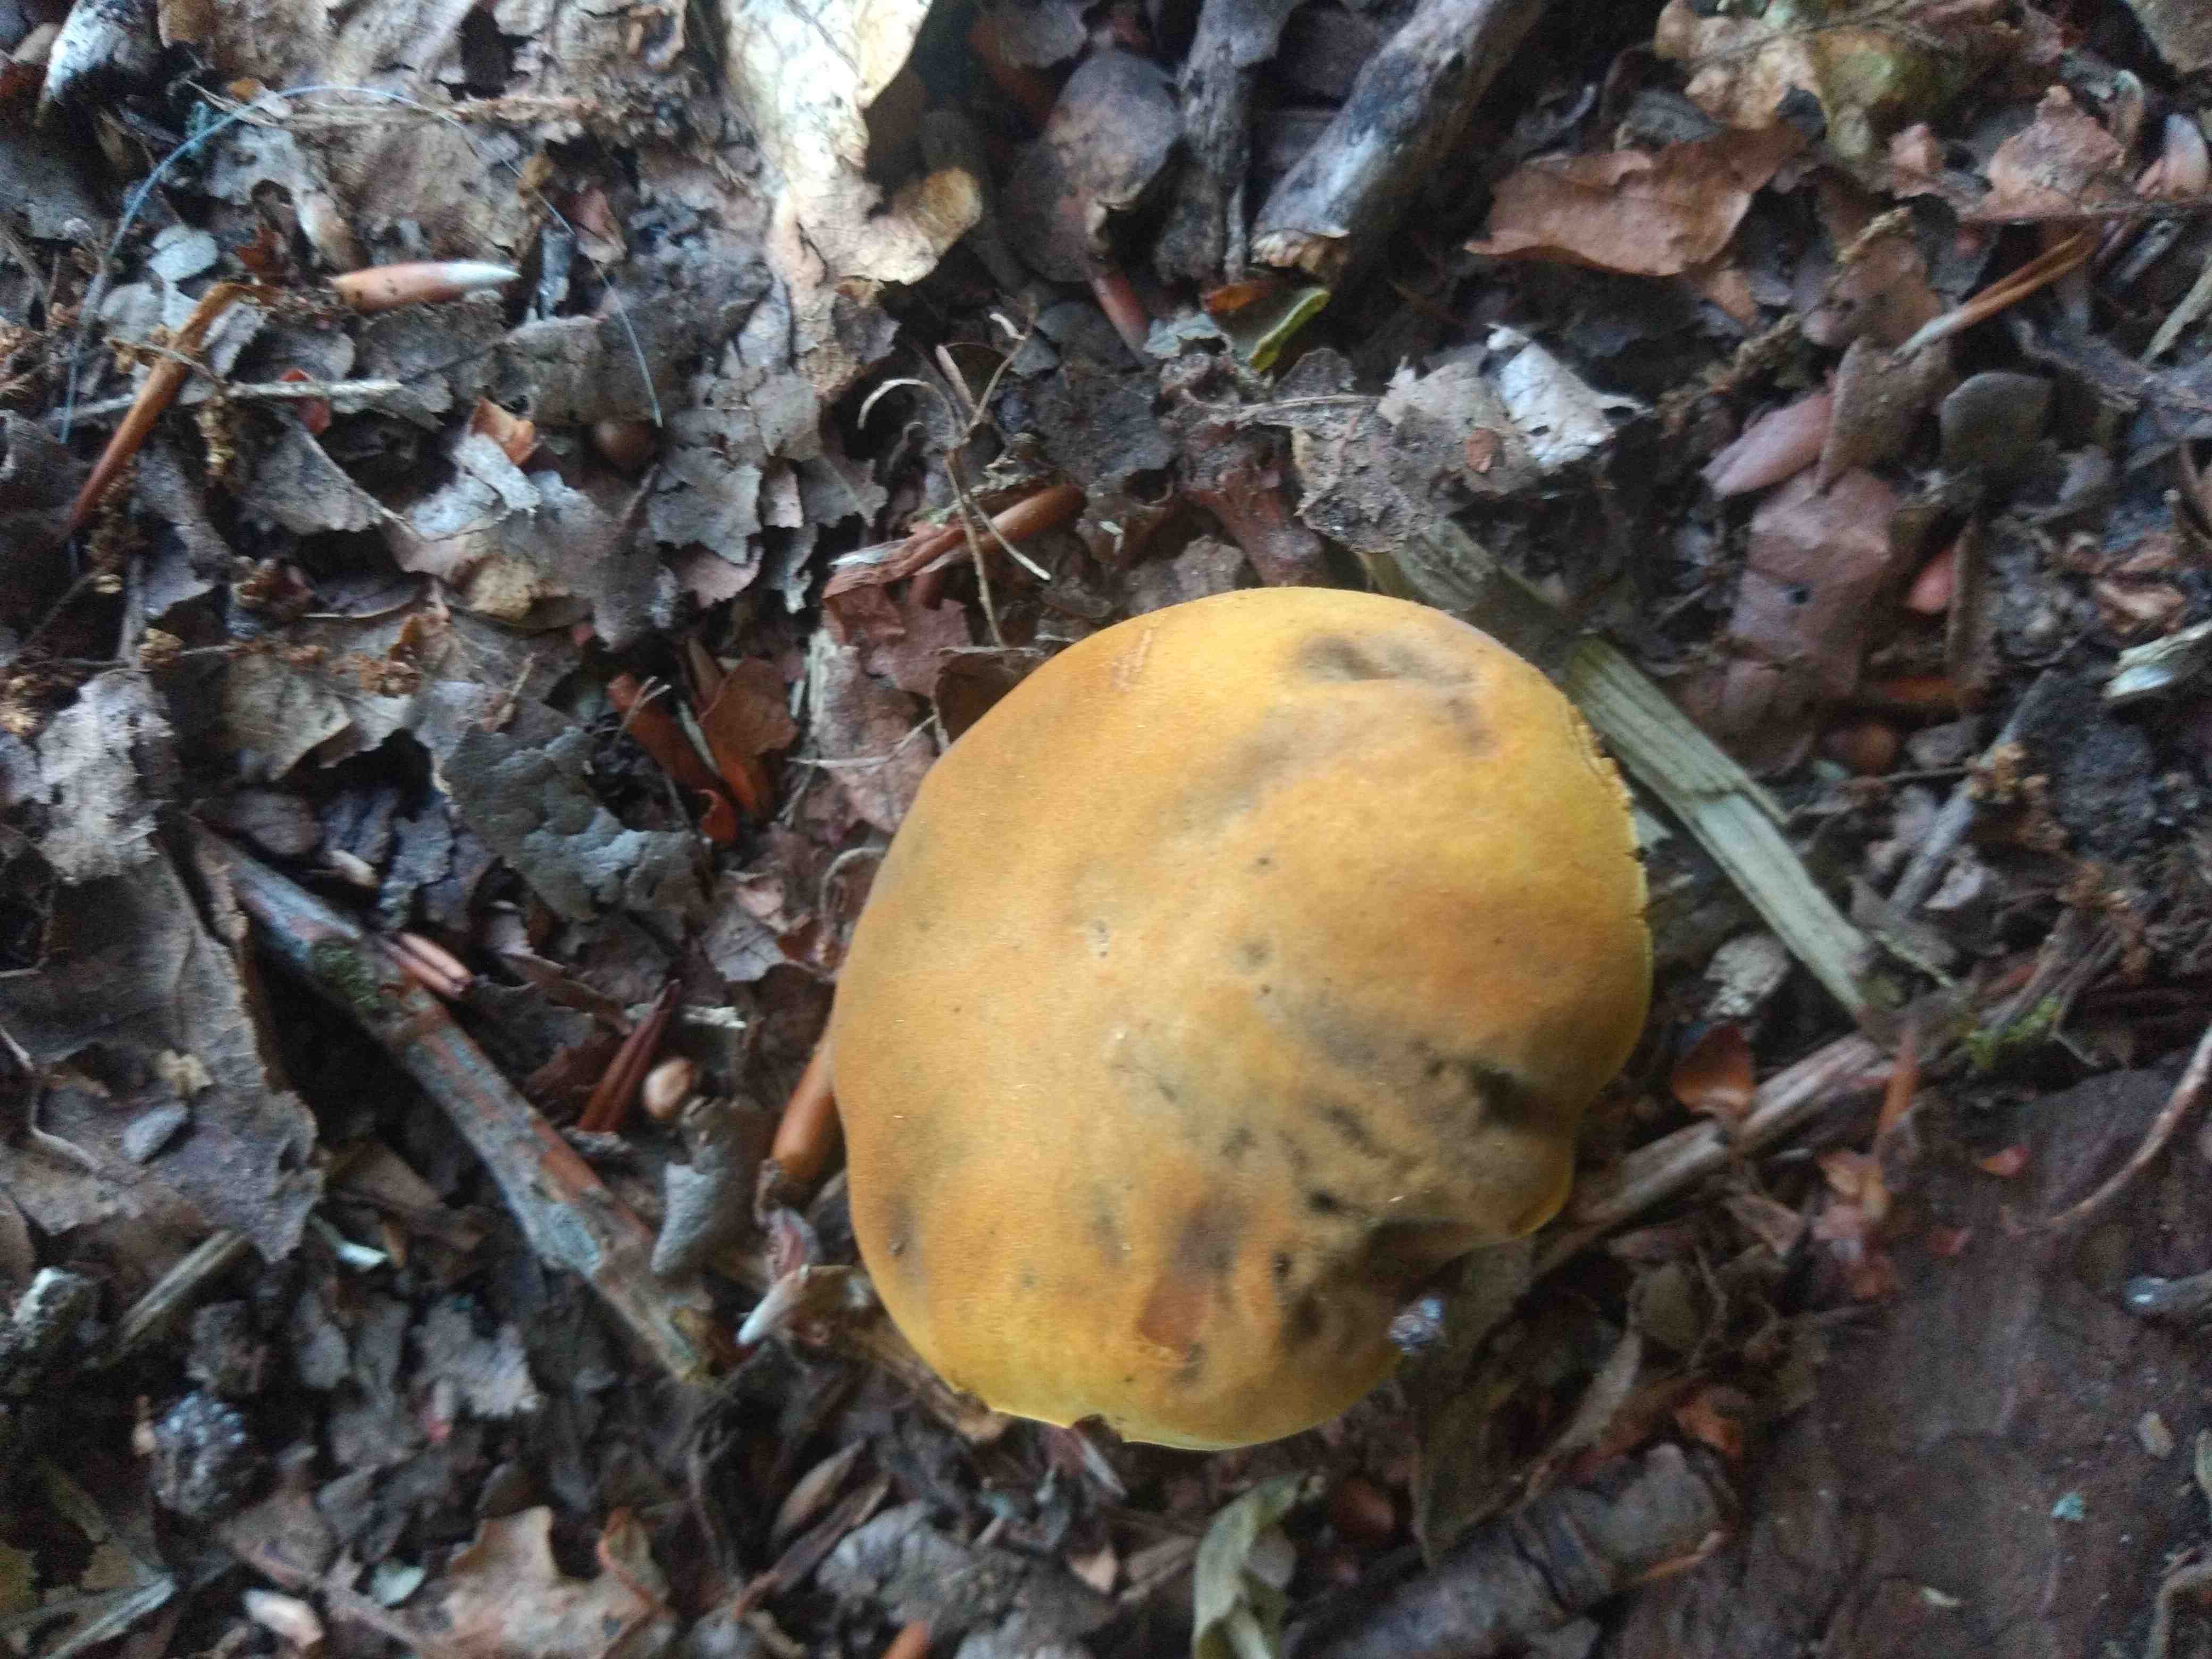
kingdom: Fungi
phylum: Basidiomycota
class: Agaricomycetes
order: Boletales
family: Boletaceae
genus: Butyriboletus
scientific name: Butyriboletus appendiculatus
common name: tenstokket rørhat
